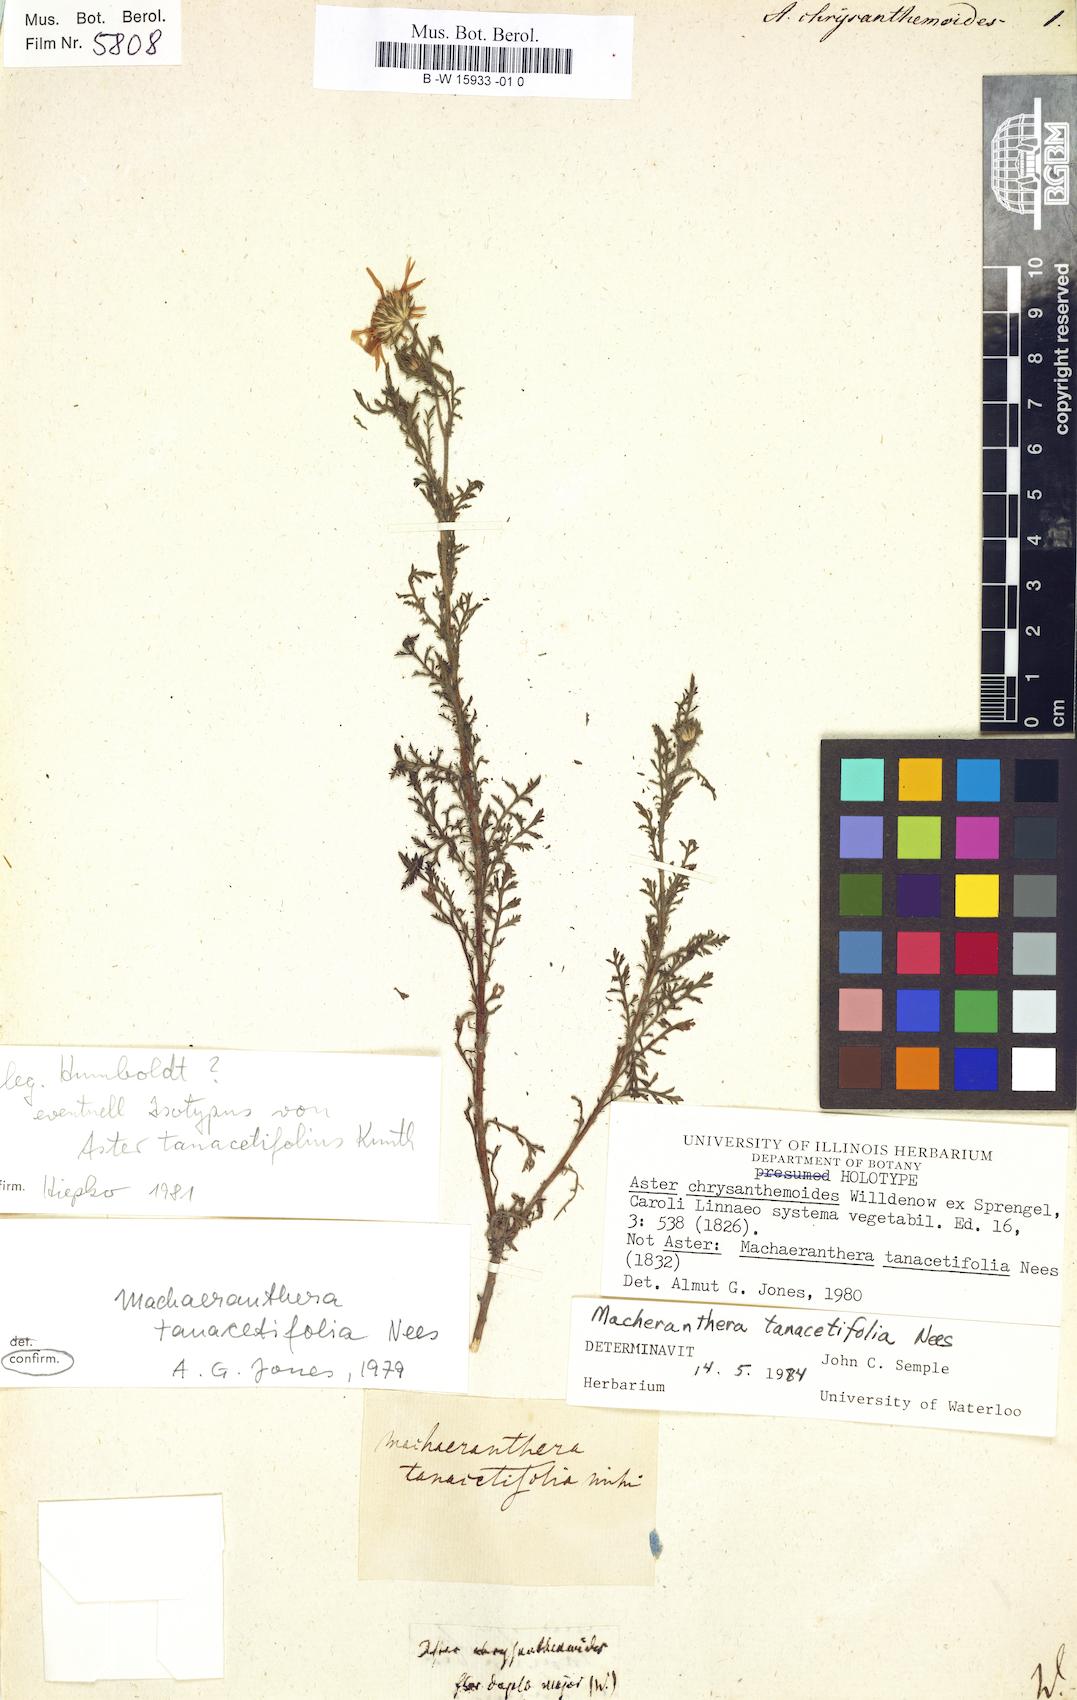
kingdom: Plantae
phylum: Tracheophyta
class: Magnoliopsida
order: Asterales
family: Asteraceae
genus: Machaeranthera
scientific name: Machaeranthera tanacetifolia
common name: Tansy-aster
